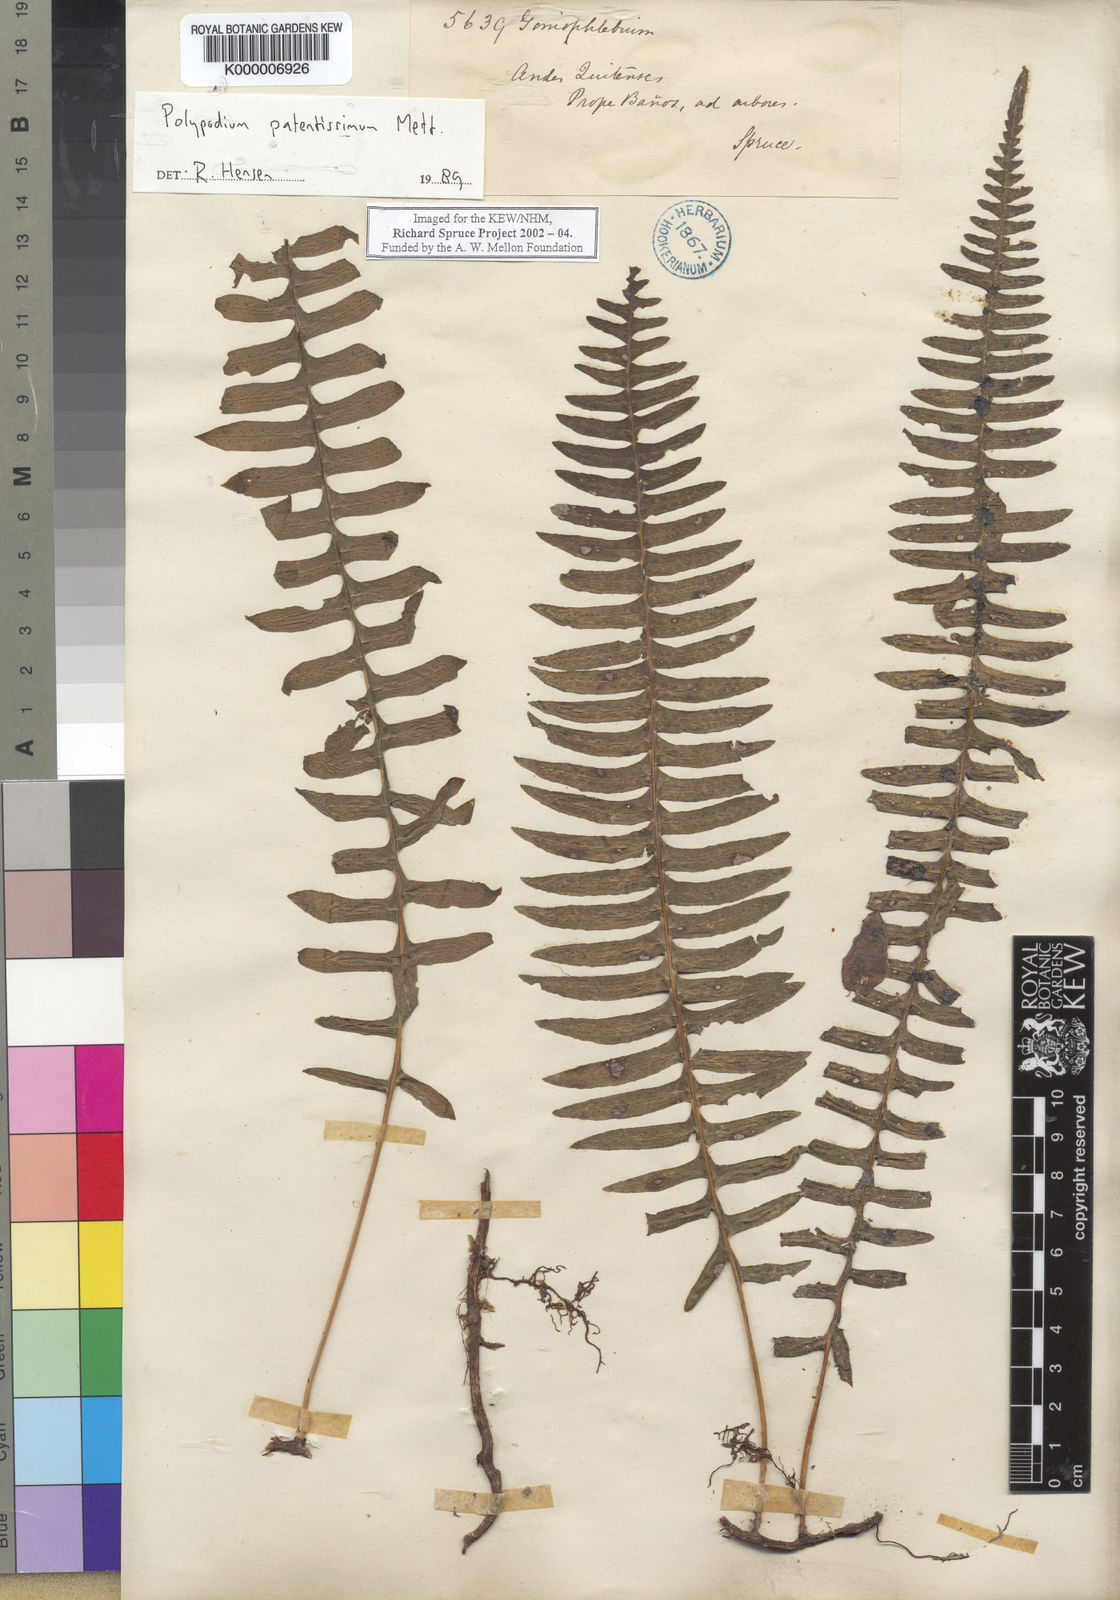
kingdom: Plantae
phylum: Tracheophyta
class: Polypodiopsida
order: Polypodiales
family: Polypodiaceae
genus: Serpocaulon
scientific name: Serpocaulon patentissimum
